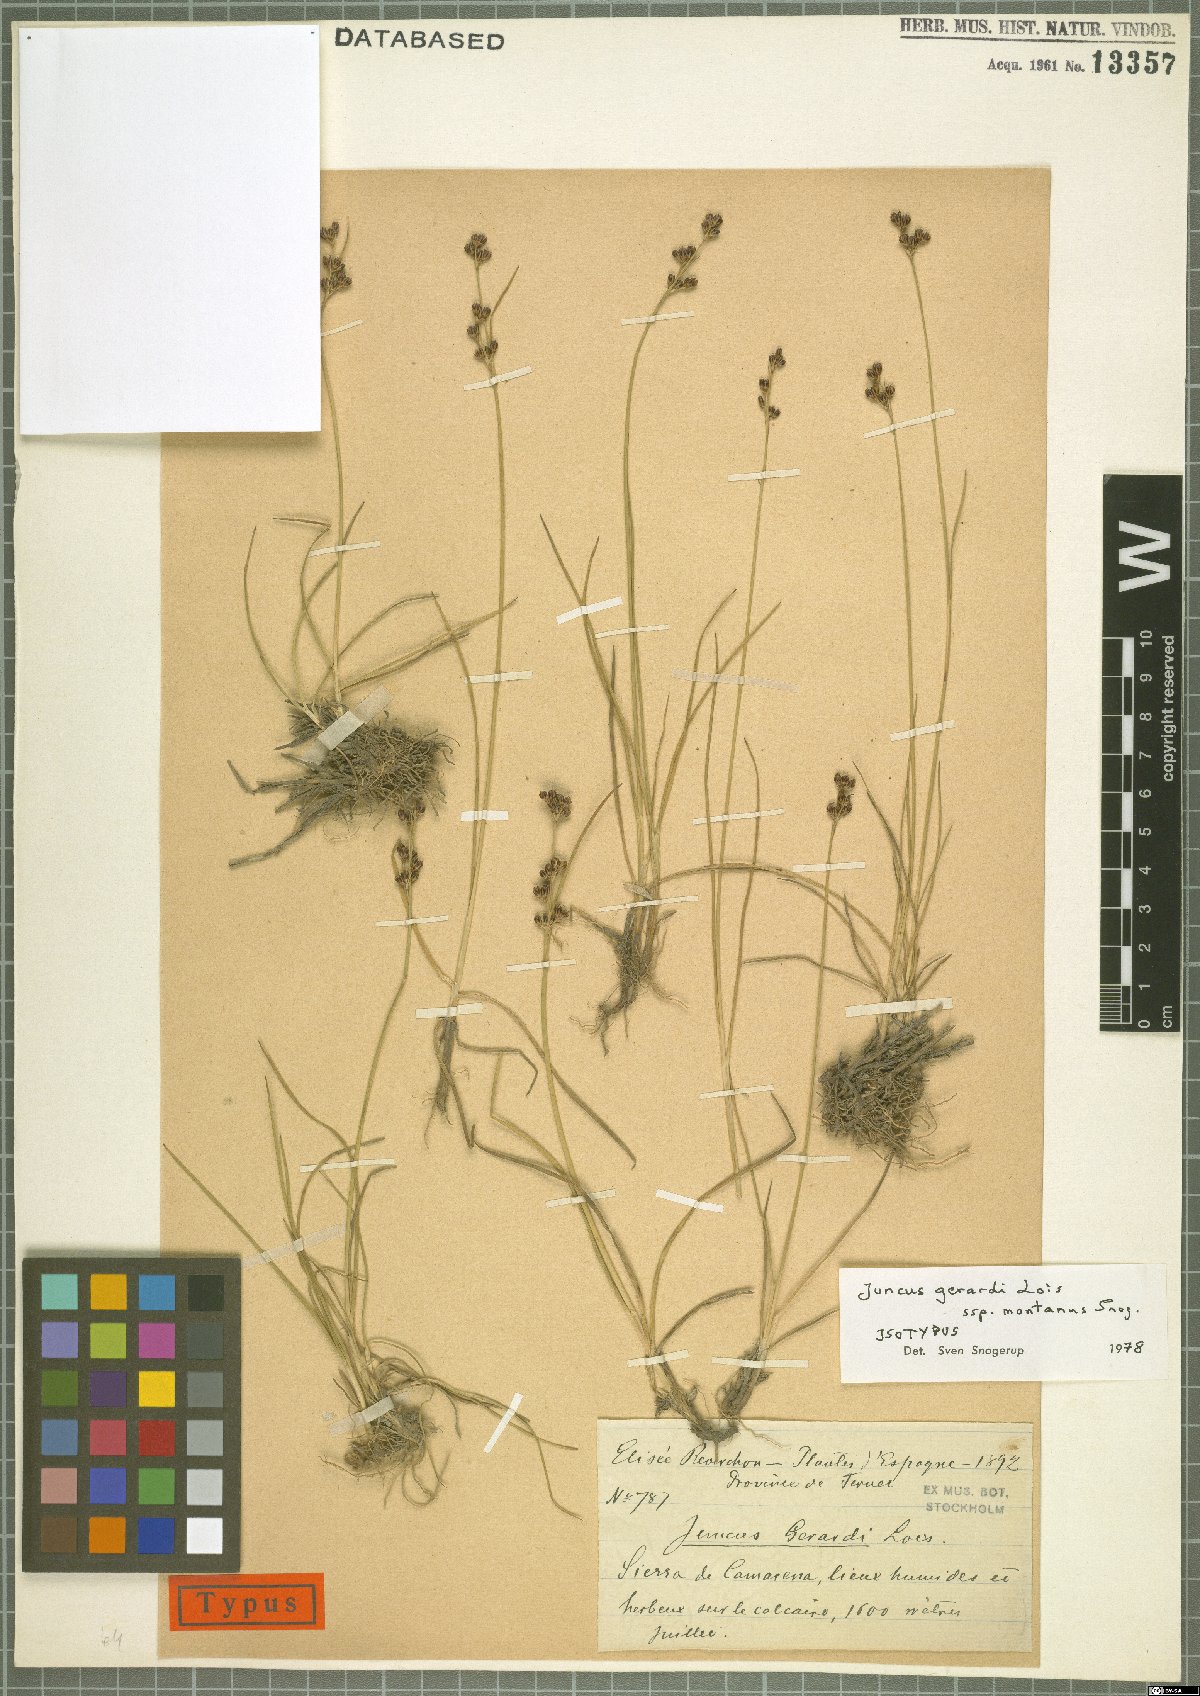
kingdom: Plantae
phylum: Tracheophyta
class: Liliopsida
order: Poales
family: Juncaceae
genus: Juncus
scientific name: Juncus gerardi
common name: Saltmarsh rush
